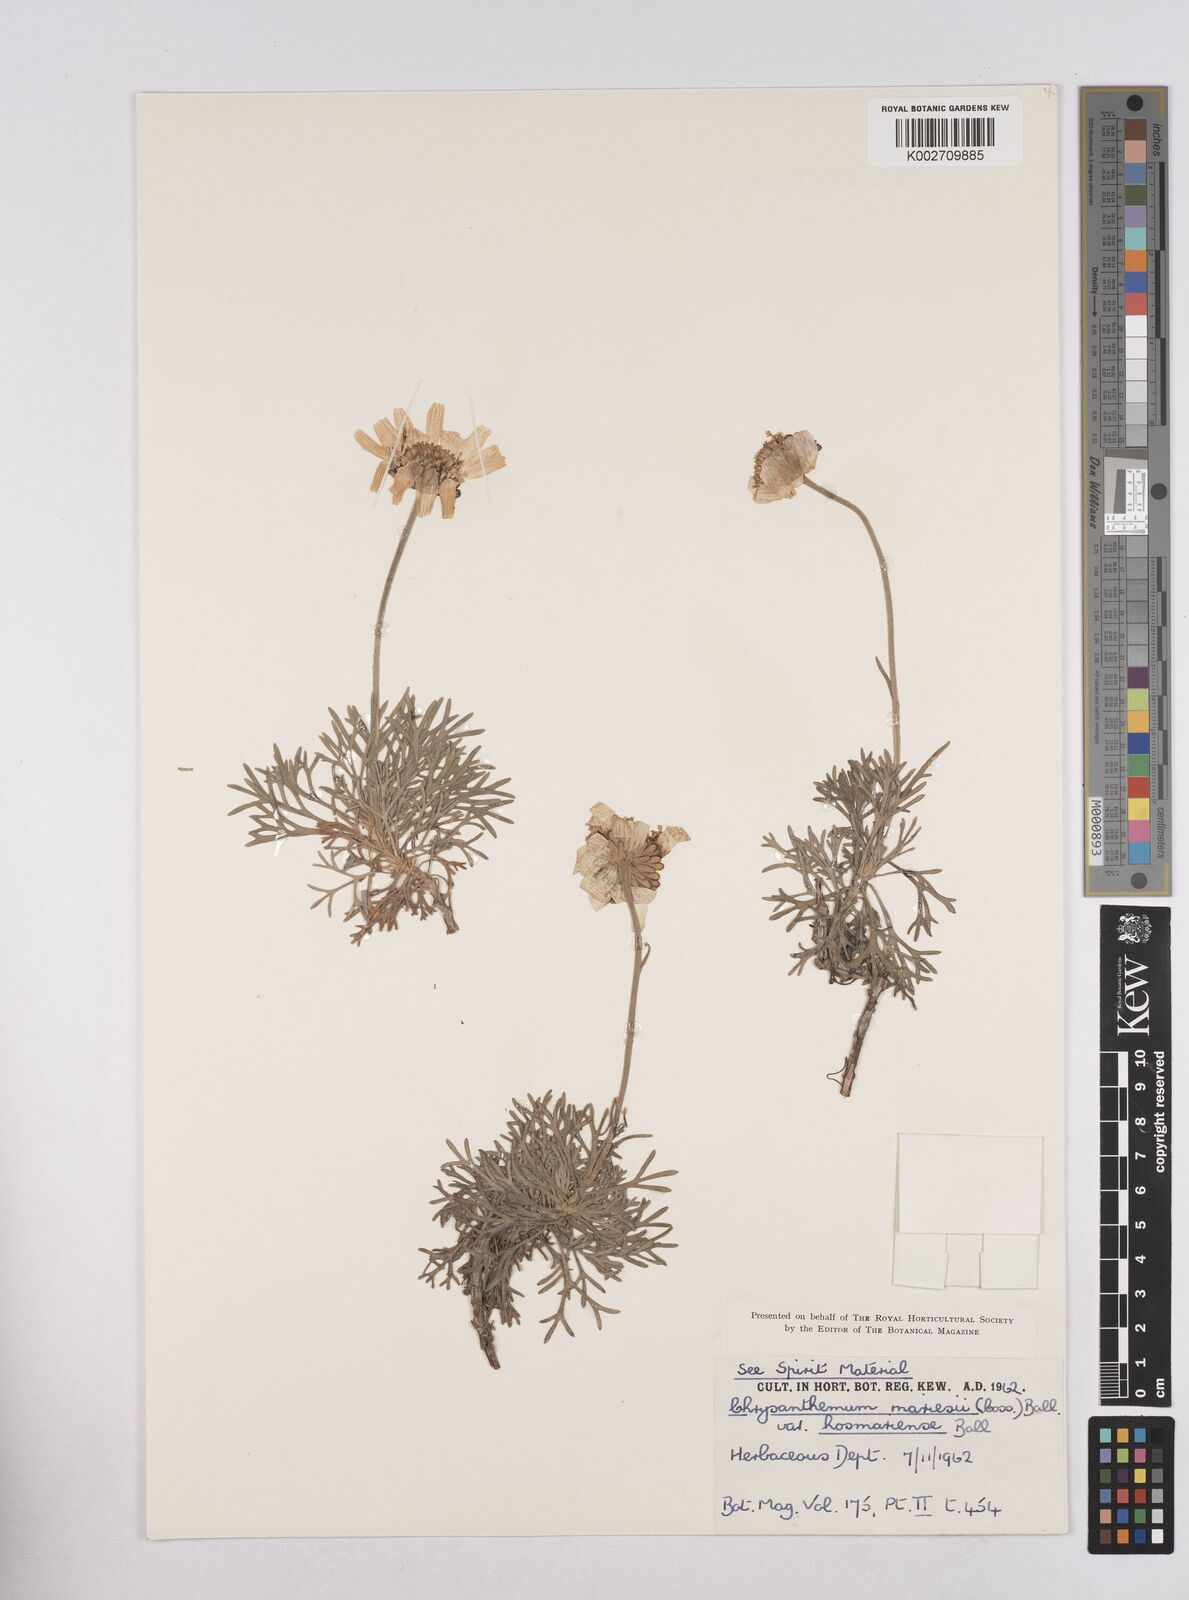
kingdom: Plantae
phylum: Tracheophyta
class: Magnoliopsida
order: Asterales
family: Asteraceae
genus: Rhodanthemum
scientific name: Rhodanthemum maresii
